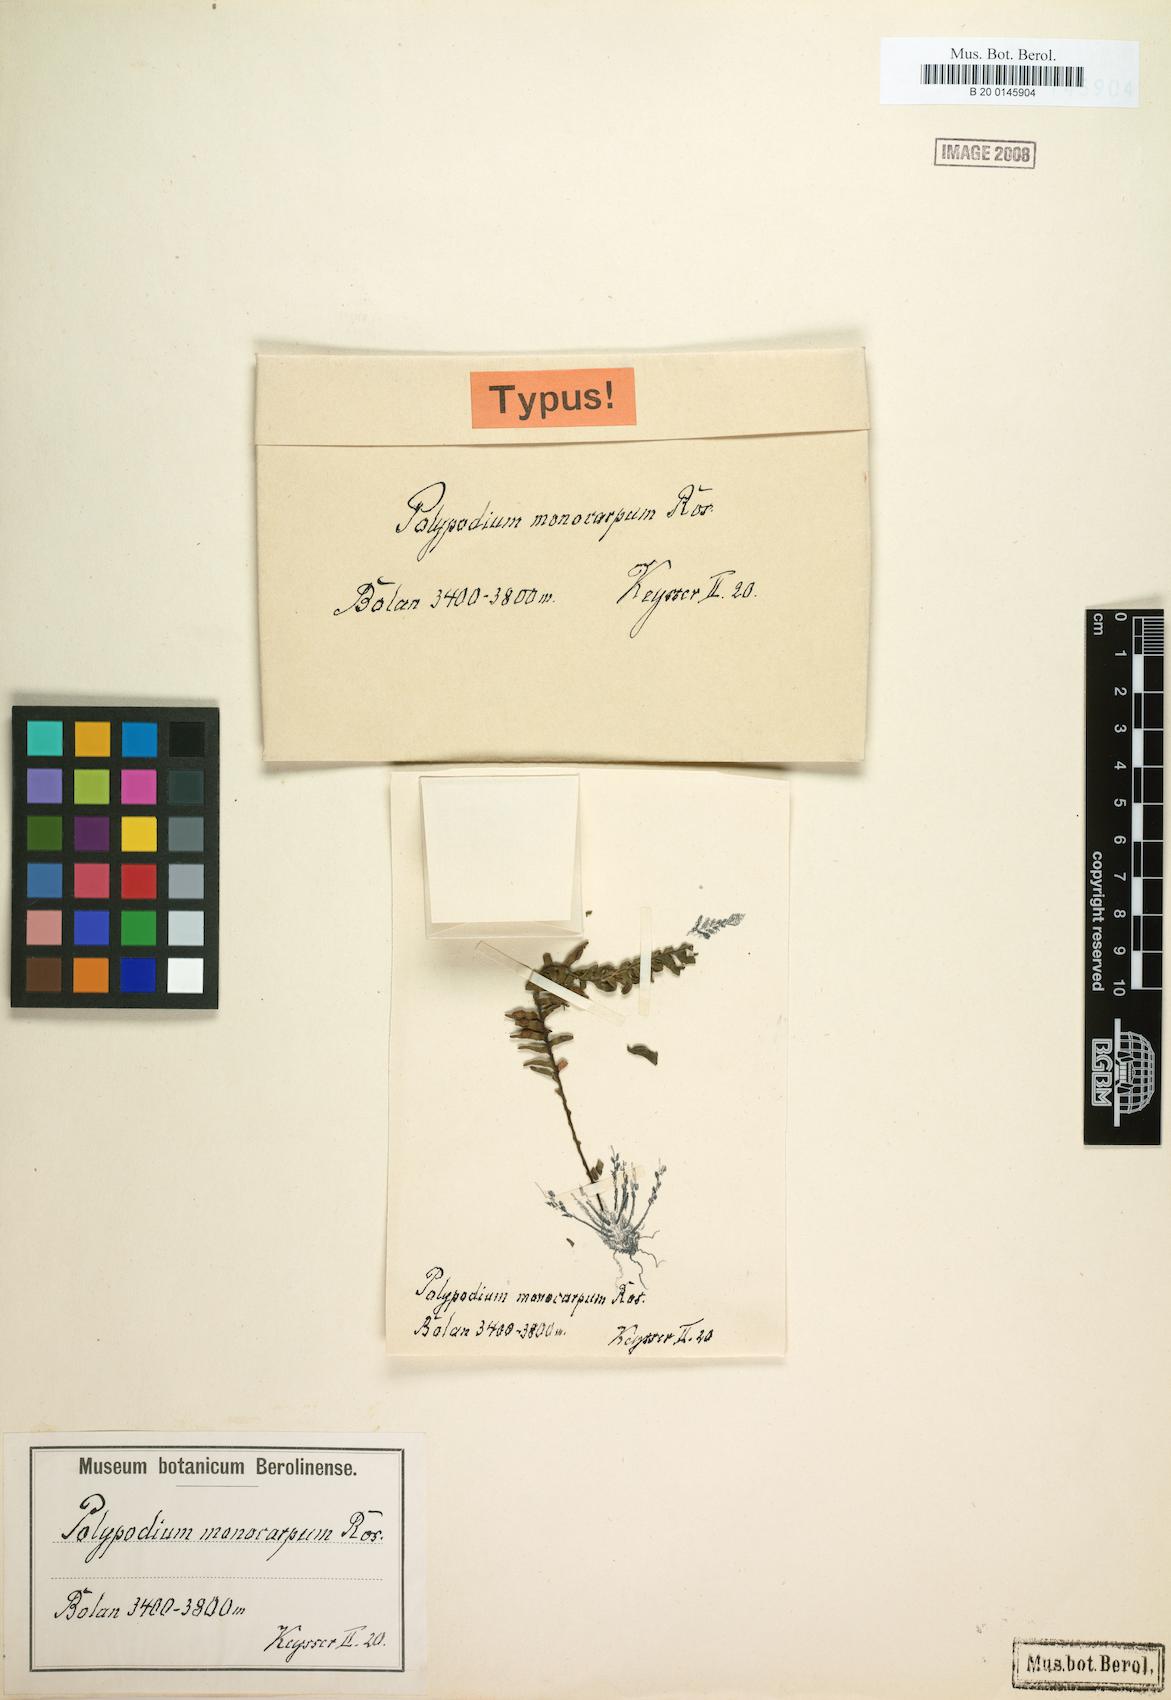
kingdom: Plantae
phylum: Tracheophyta
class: Polypodiopsida
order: Polypodiales
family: Polypodiaceae
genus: Prosaptia
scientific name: Prosaptia davalliacea
